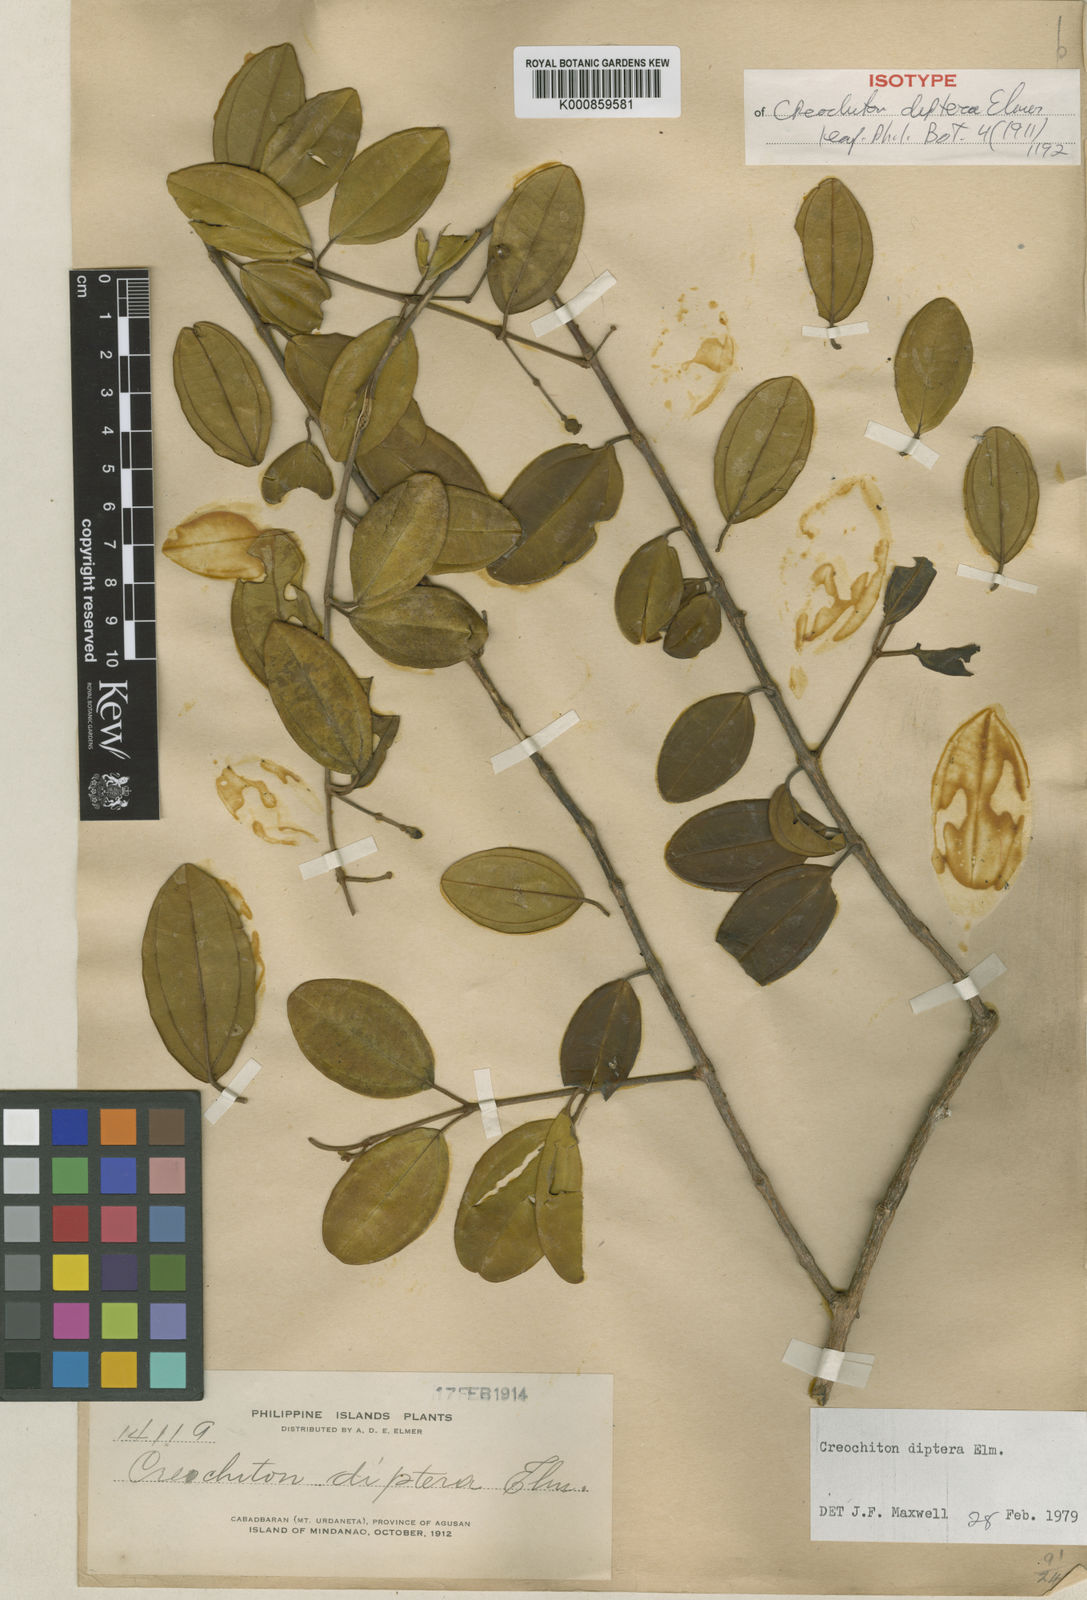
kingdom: Plantae
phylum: Tracheophyta
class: Magnoliopsida
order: Myrtales
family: Melastomataceae
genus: Creochiton
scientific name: Creochiton diptera
